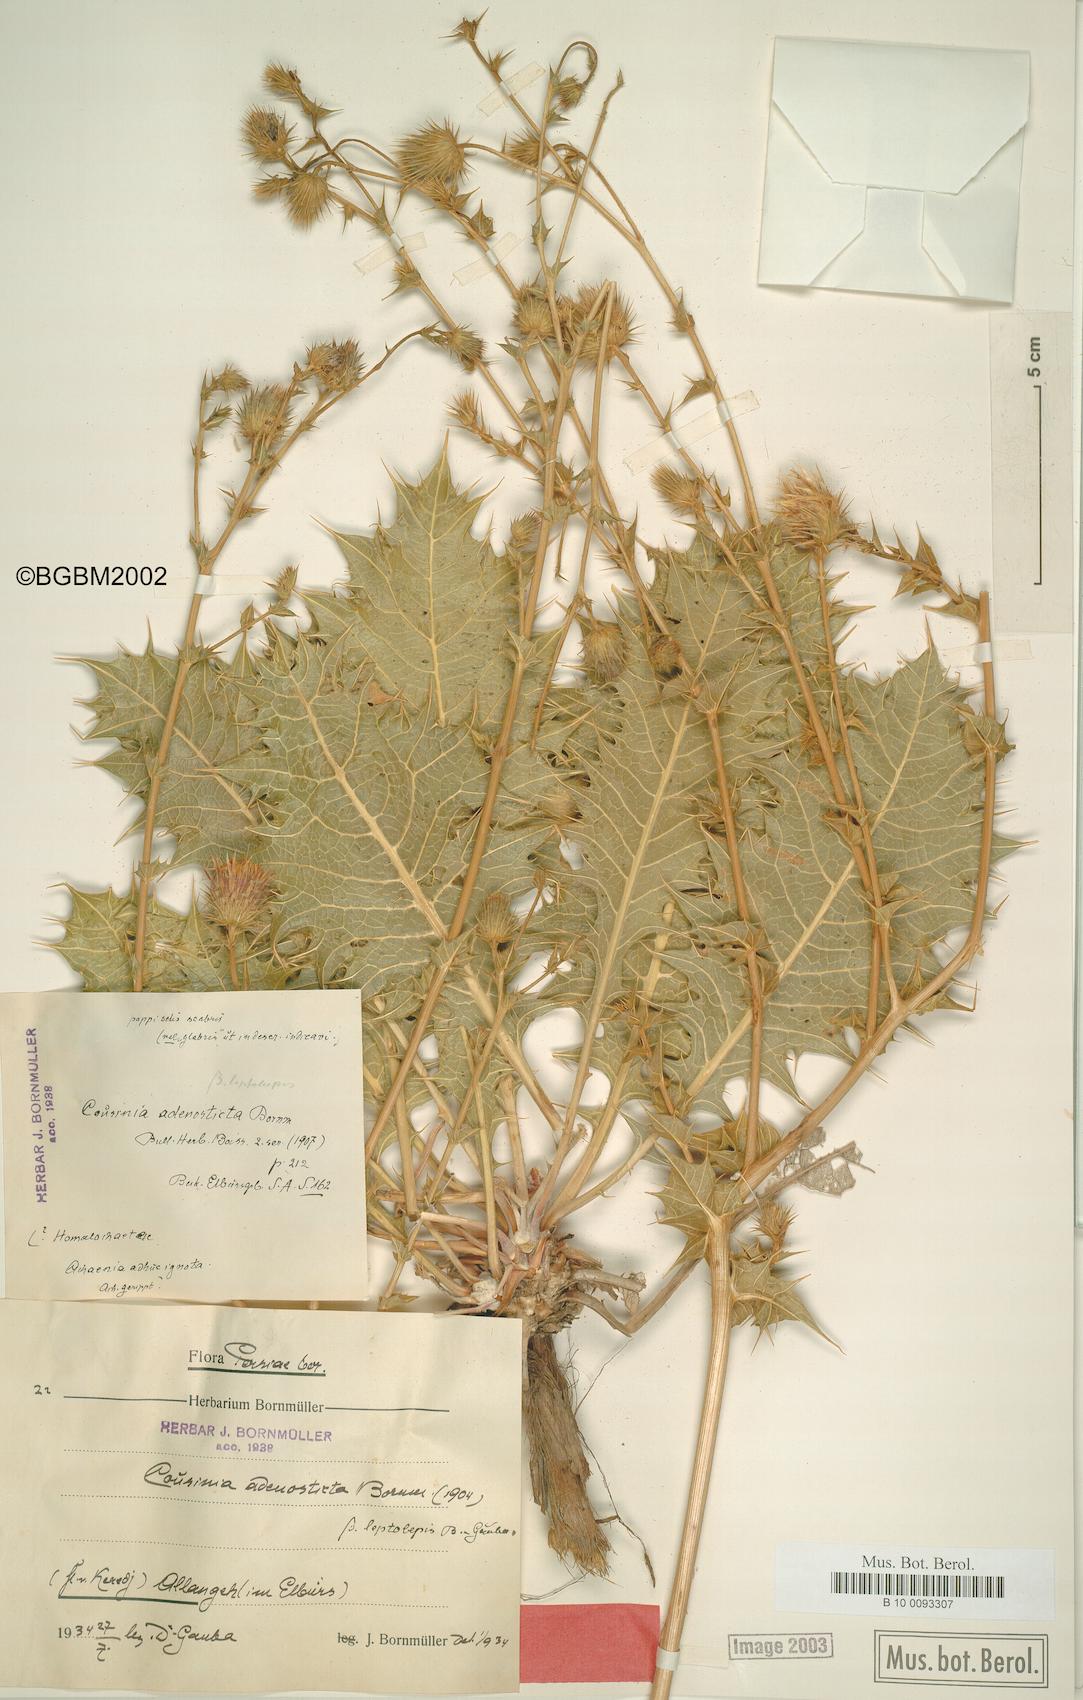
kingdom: Plantae
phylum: Tracheophyta
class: Magnoliopsida
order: Asterales
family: Asteraceae
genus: Cousinia
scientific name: Cousinia leptolepis
